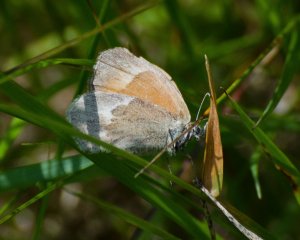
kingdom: Animalia
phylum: Arthropoda
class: Insecta
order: Lepidoptera
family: Nymphalidae
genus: Coenonympha
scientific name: Coenonympha tullia
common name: Large Heath
